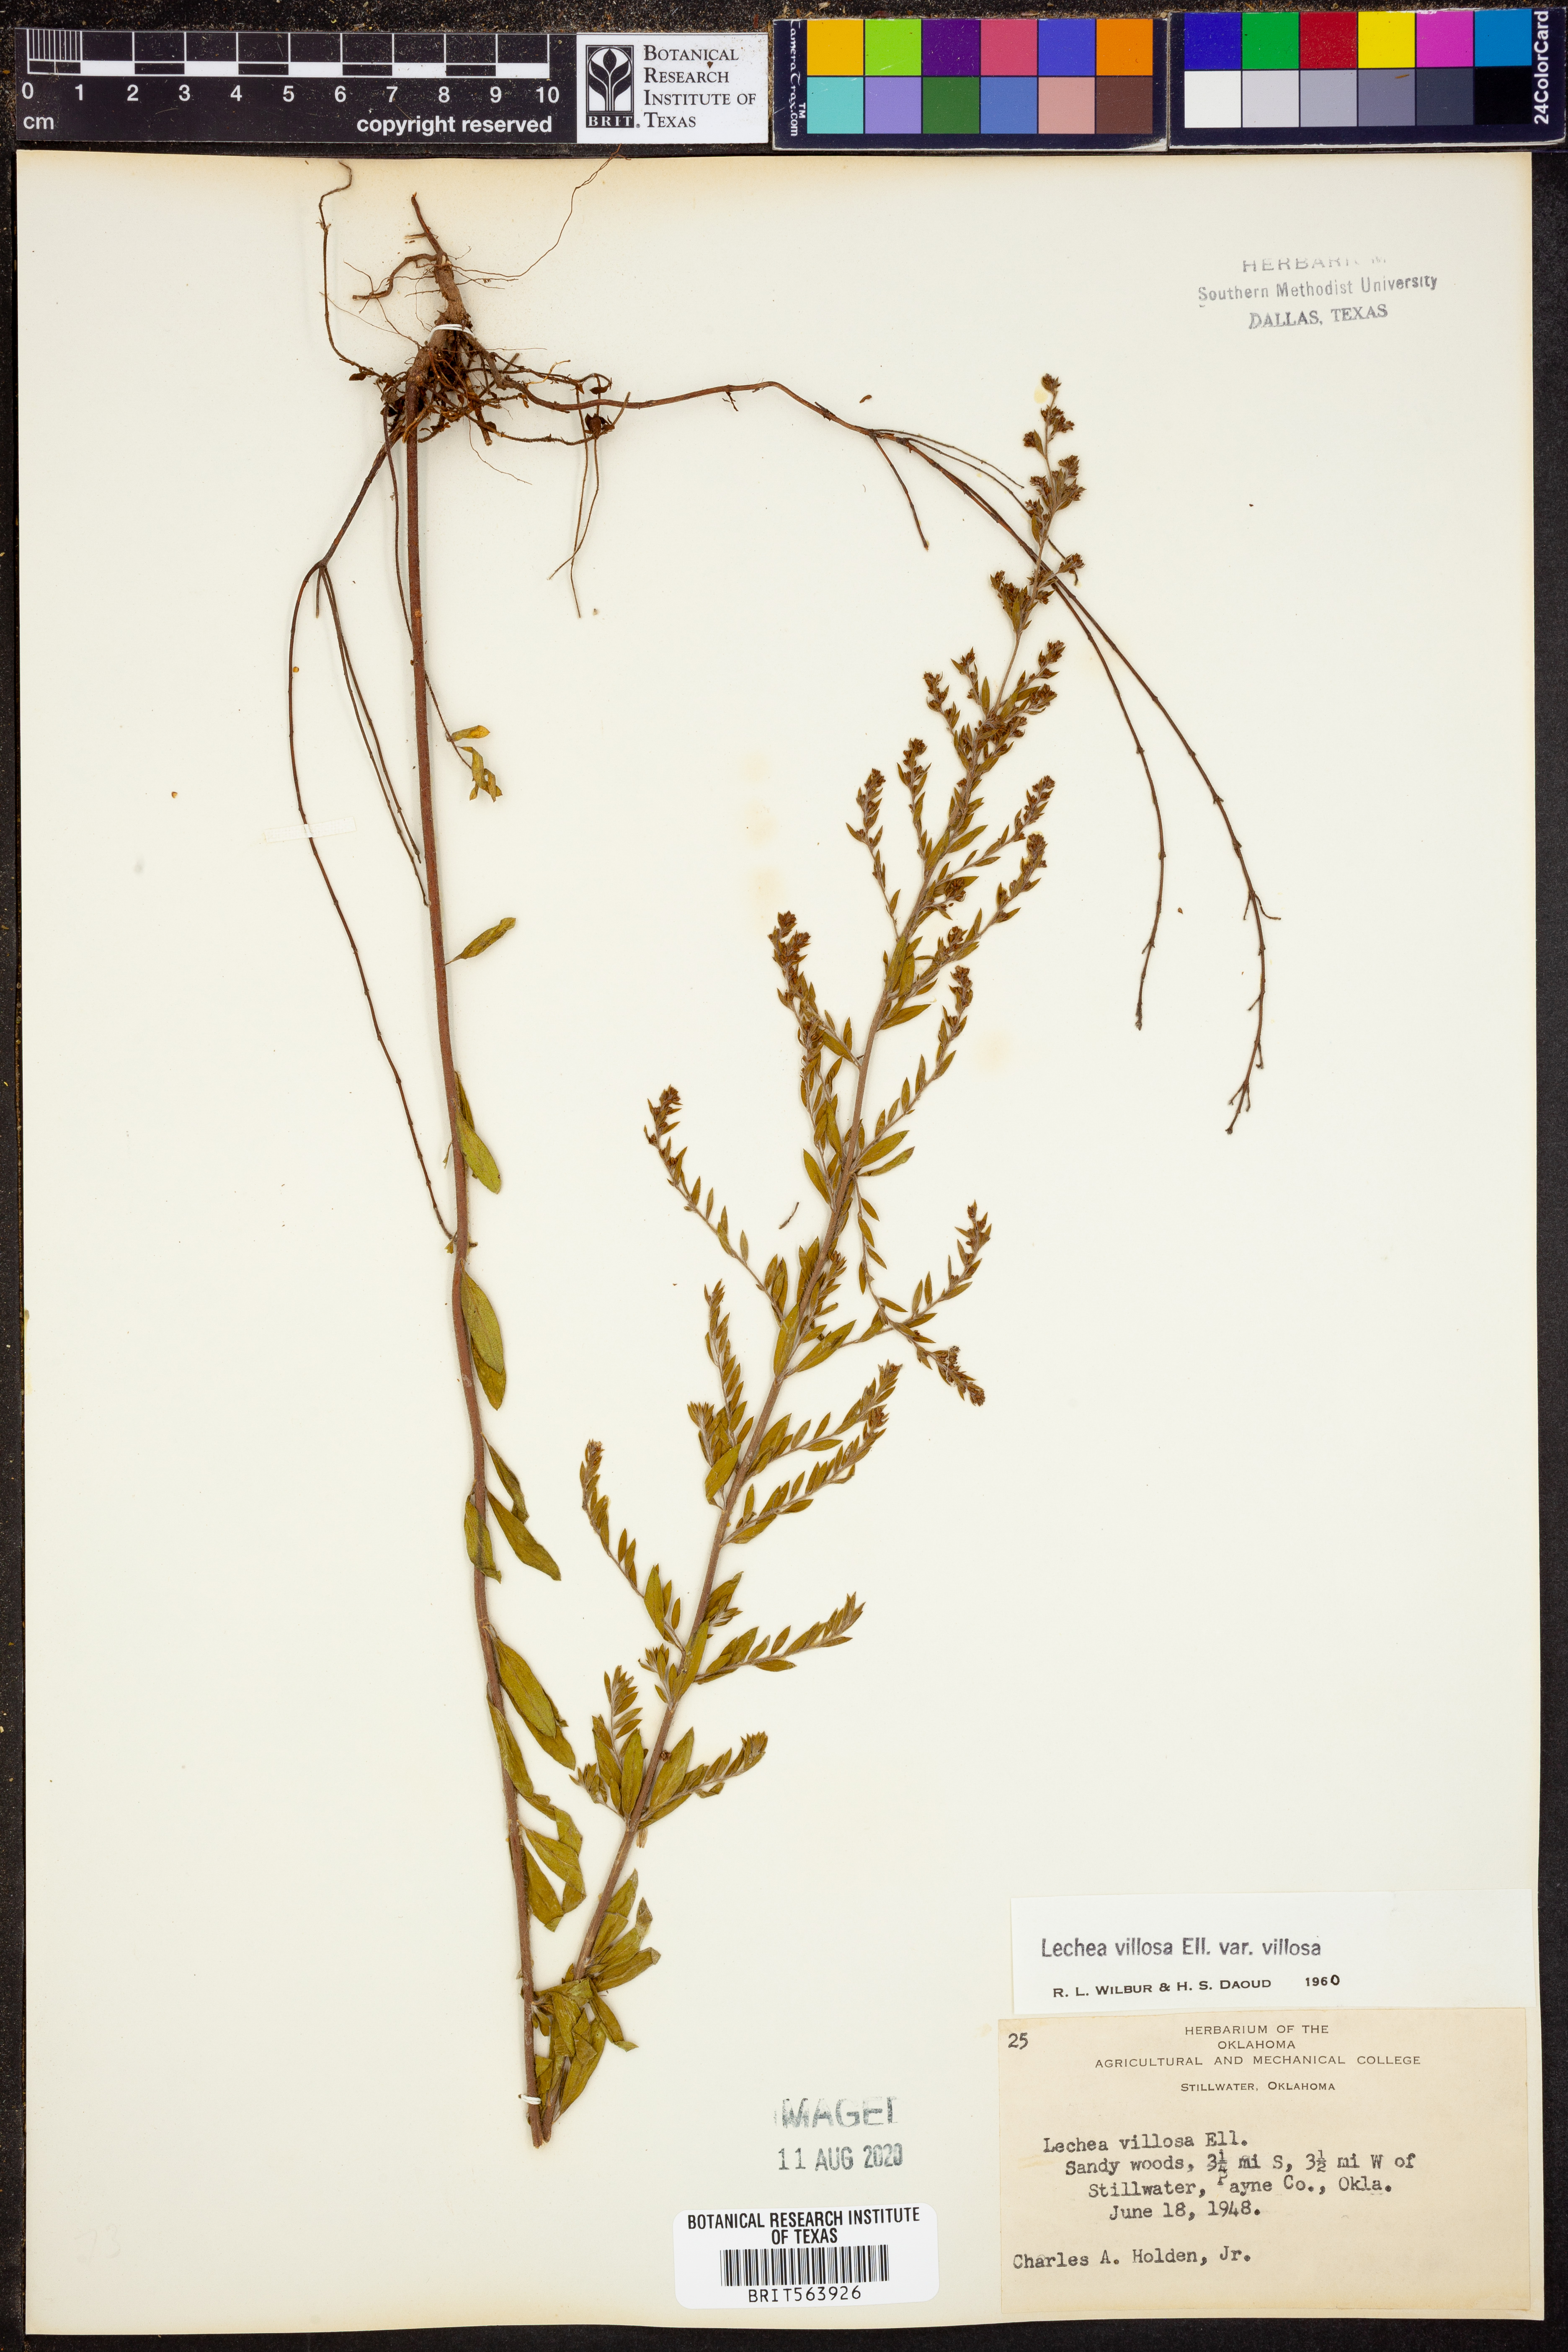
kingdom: Plantae
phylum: Tracheophyta
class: Magnoliopsida
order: Malvales
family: Cistaceae
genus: Lechea
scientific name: Lechea mucronata
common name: Hairy pinweed
